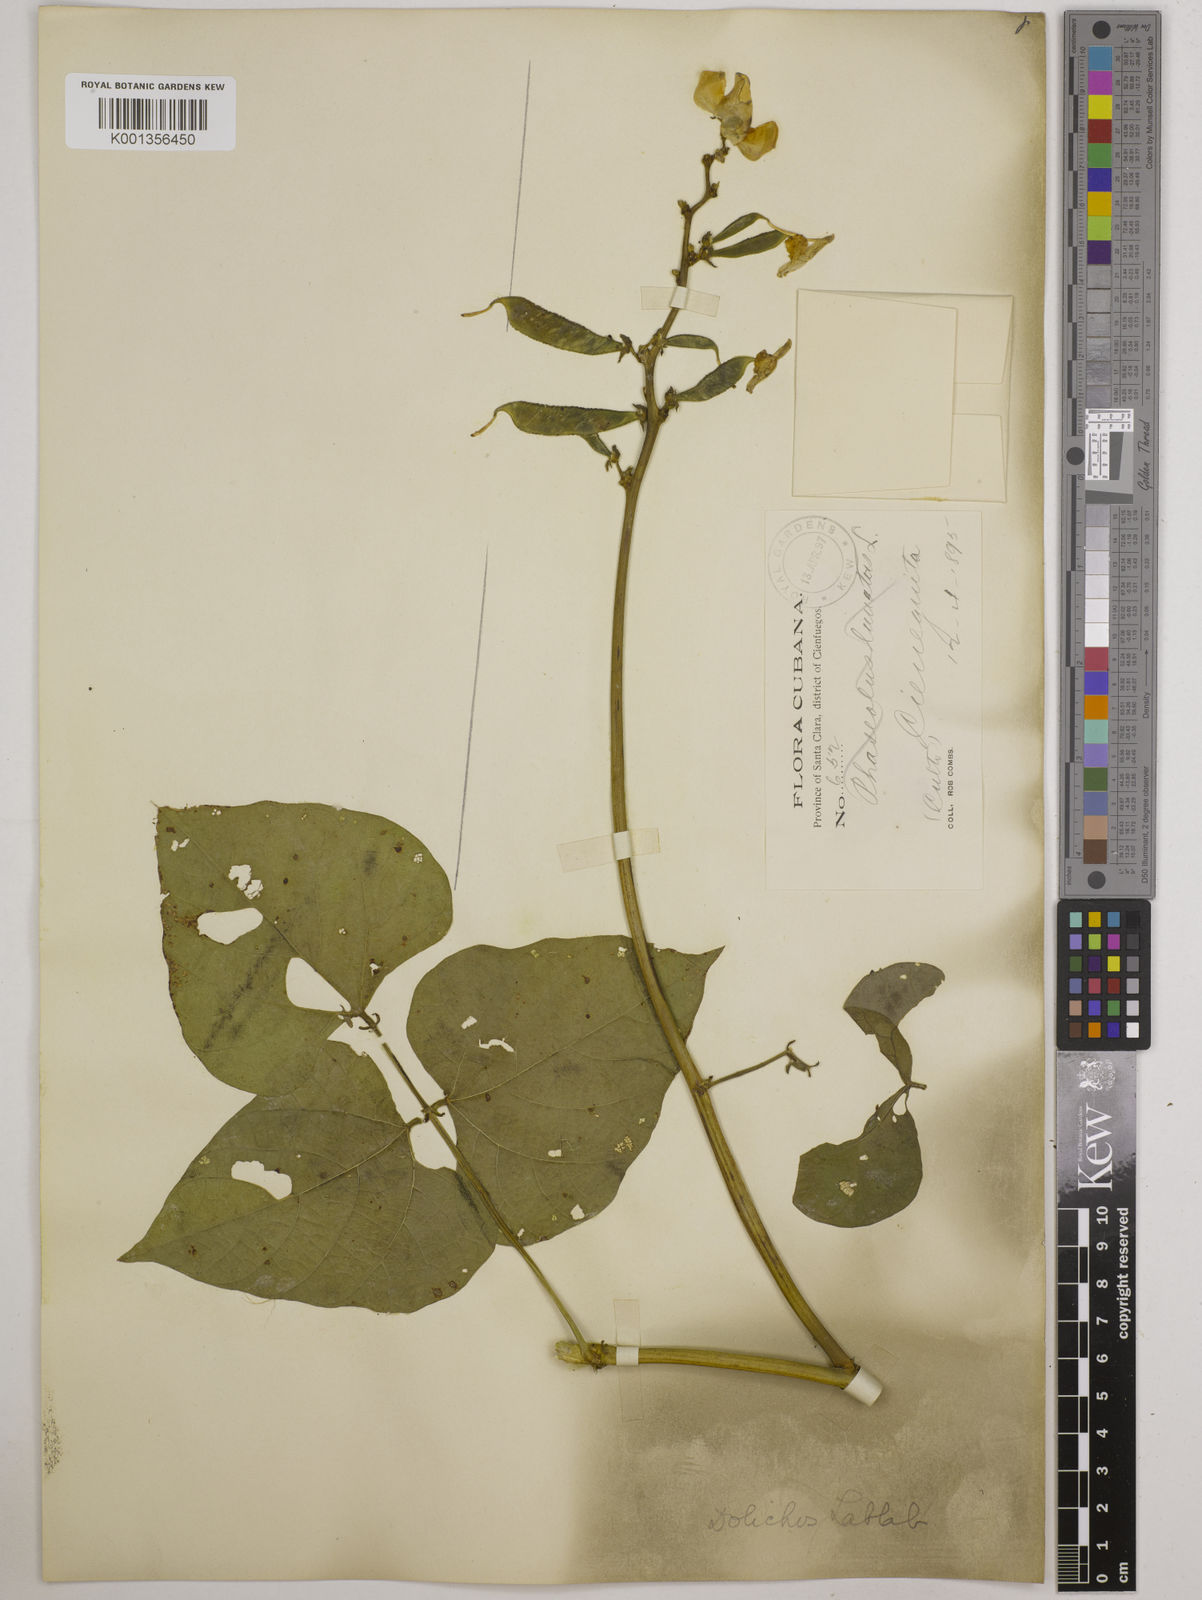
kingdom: Plantae
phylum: Tracheophyta
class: Magnoliopsida
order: Fabales
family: Fabaceae
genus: Lablab
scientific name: Lablab purpureus
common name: Lablab-bean
